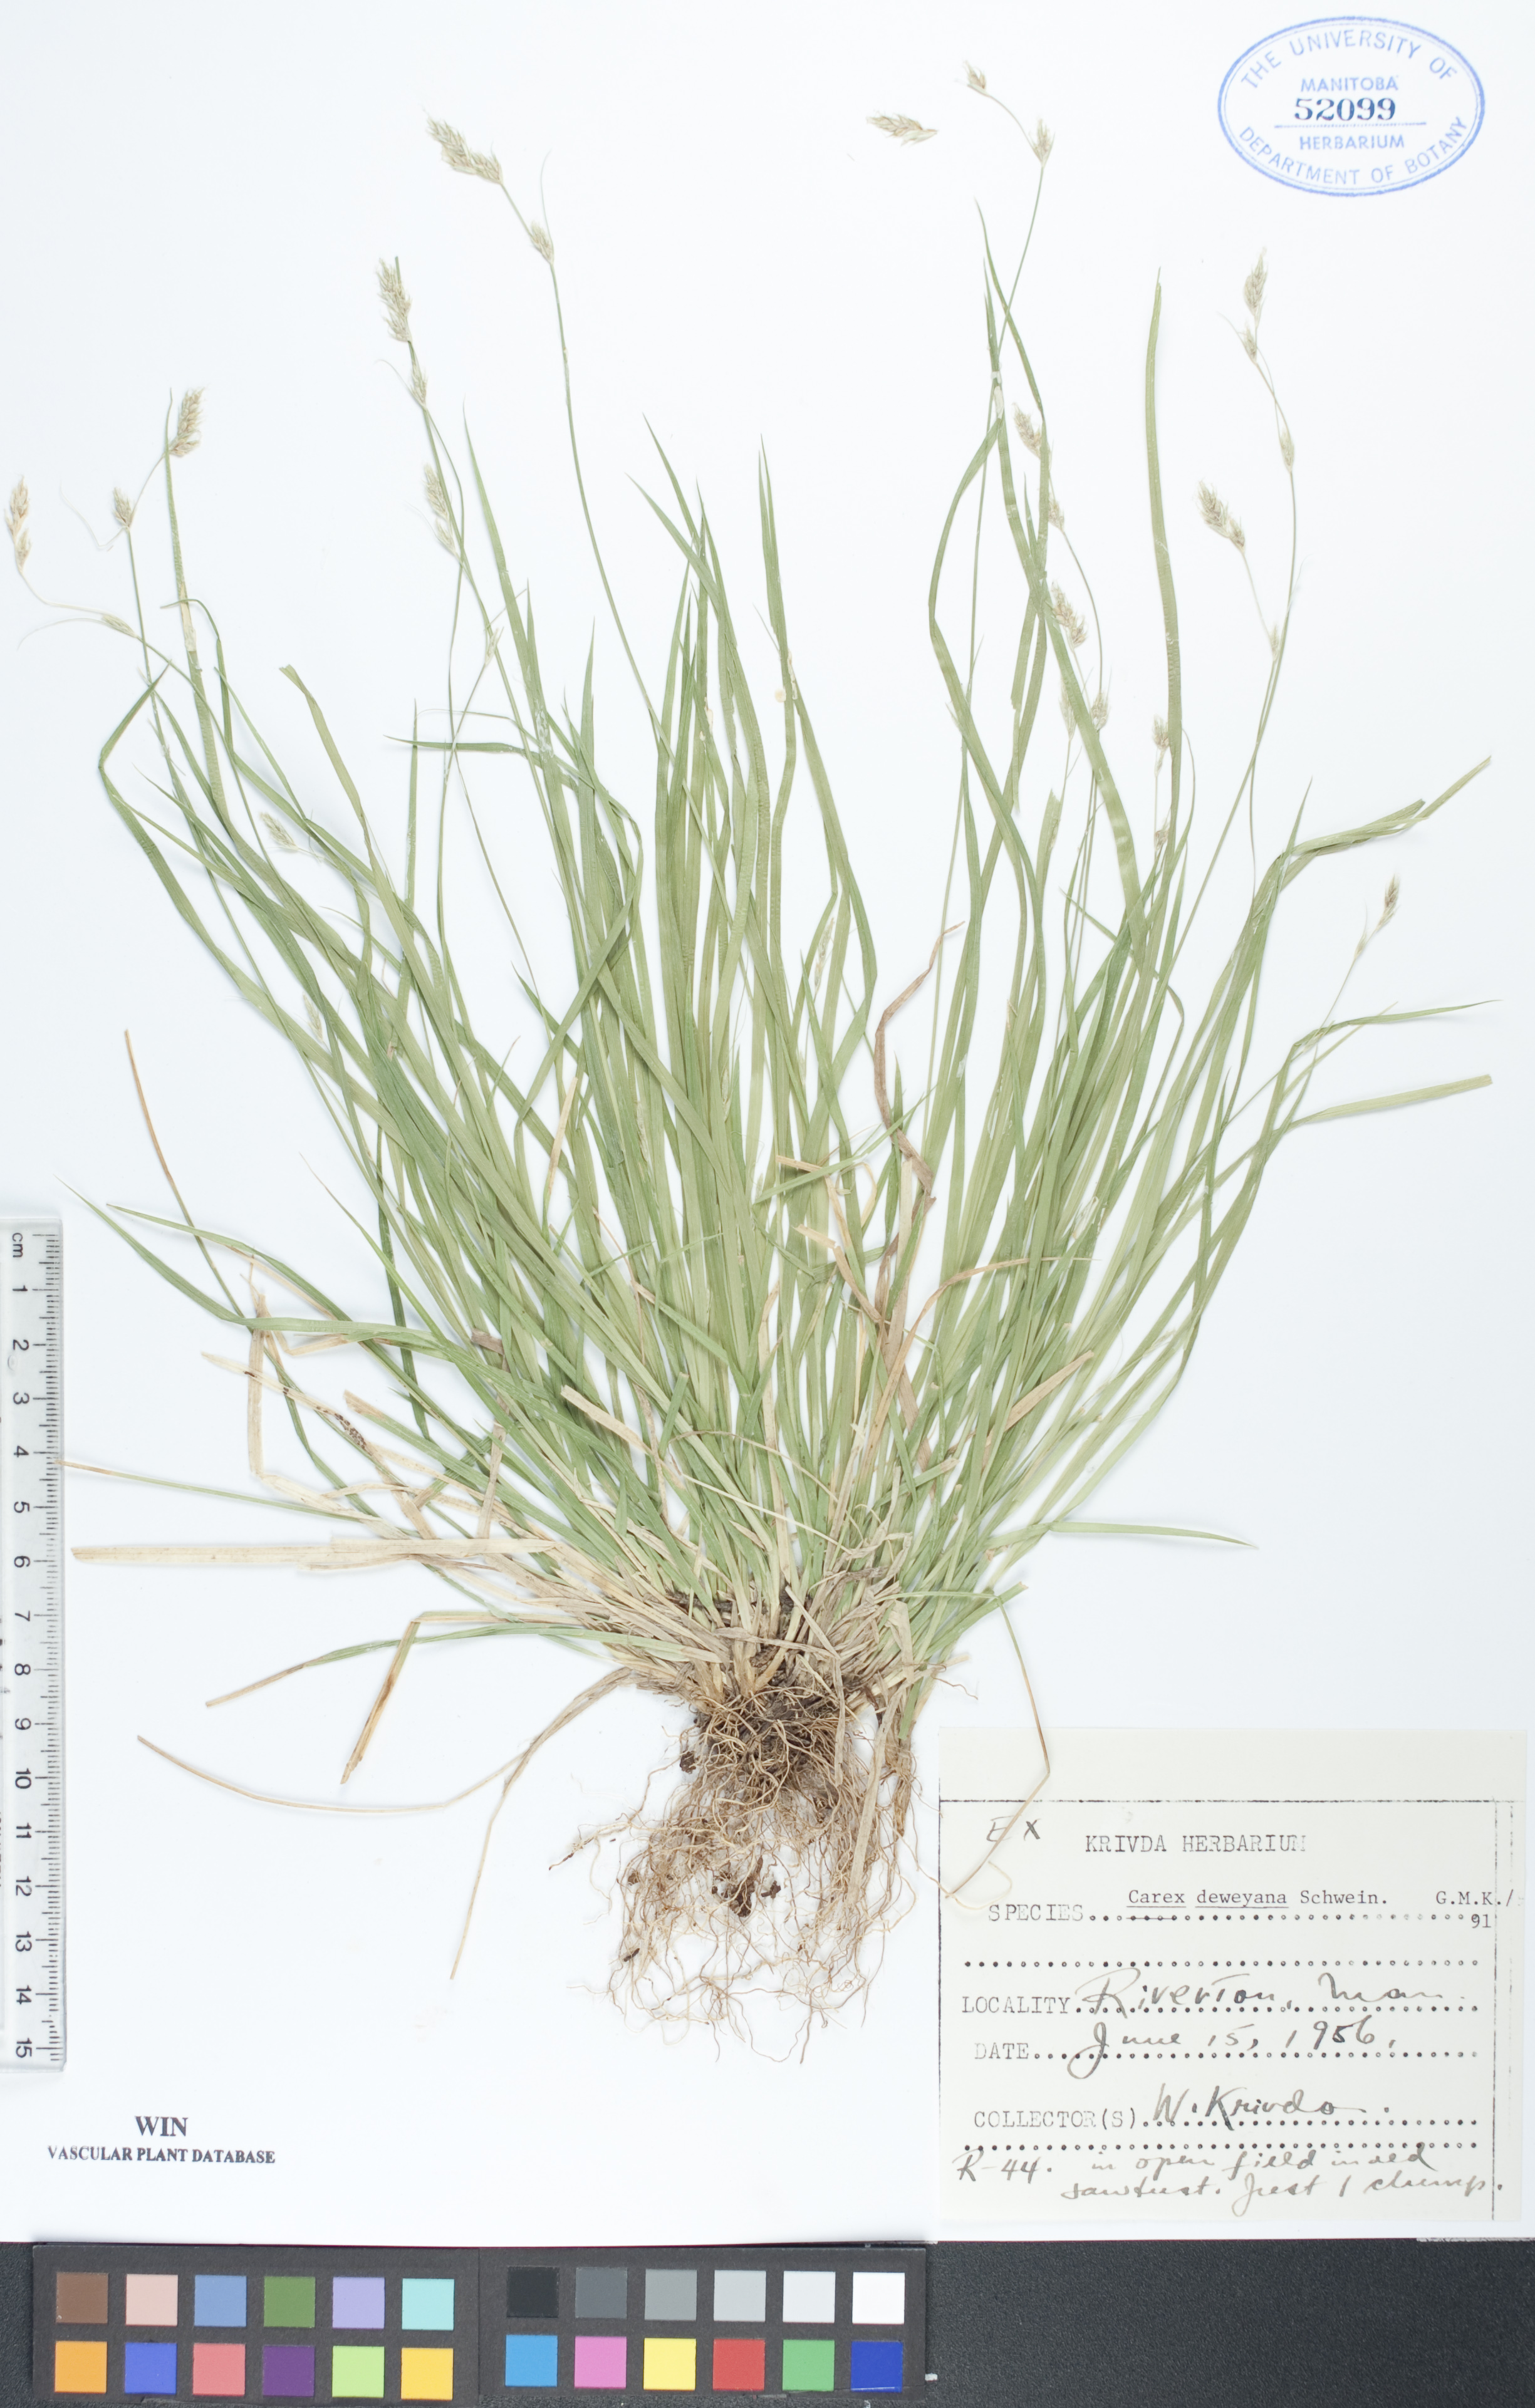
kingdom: Plantae
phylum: Tracheophyta
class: Liliopsida
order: Poales
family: Cyperaceae
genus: Carex
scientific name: Carex deweyana
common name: Dewey's sedge
